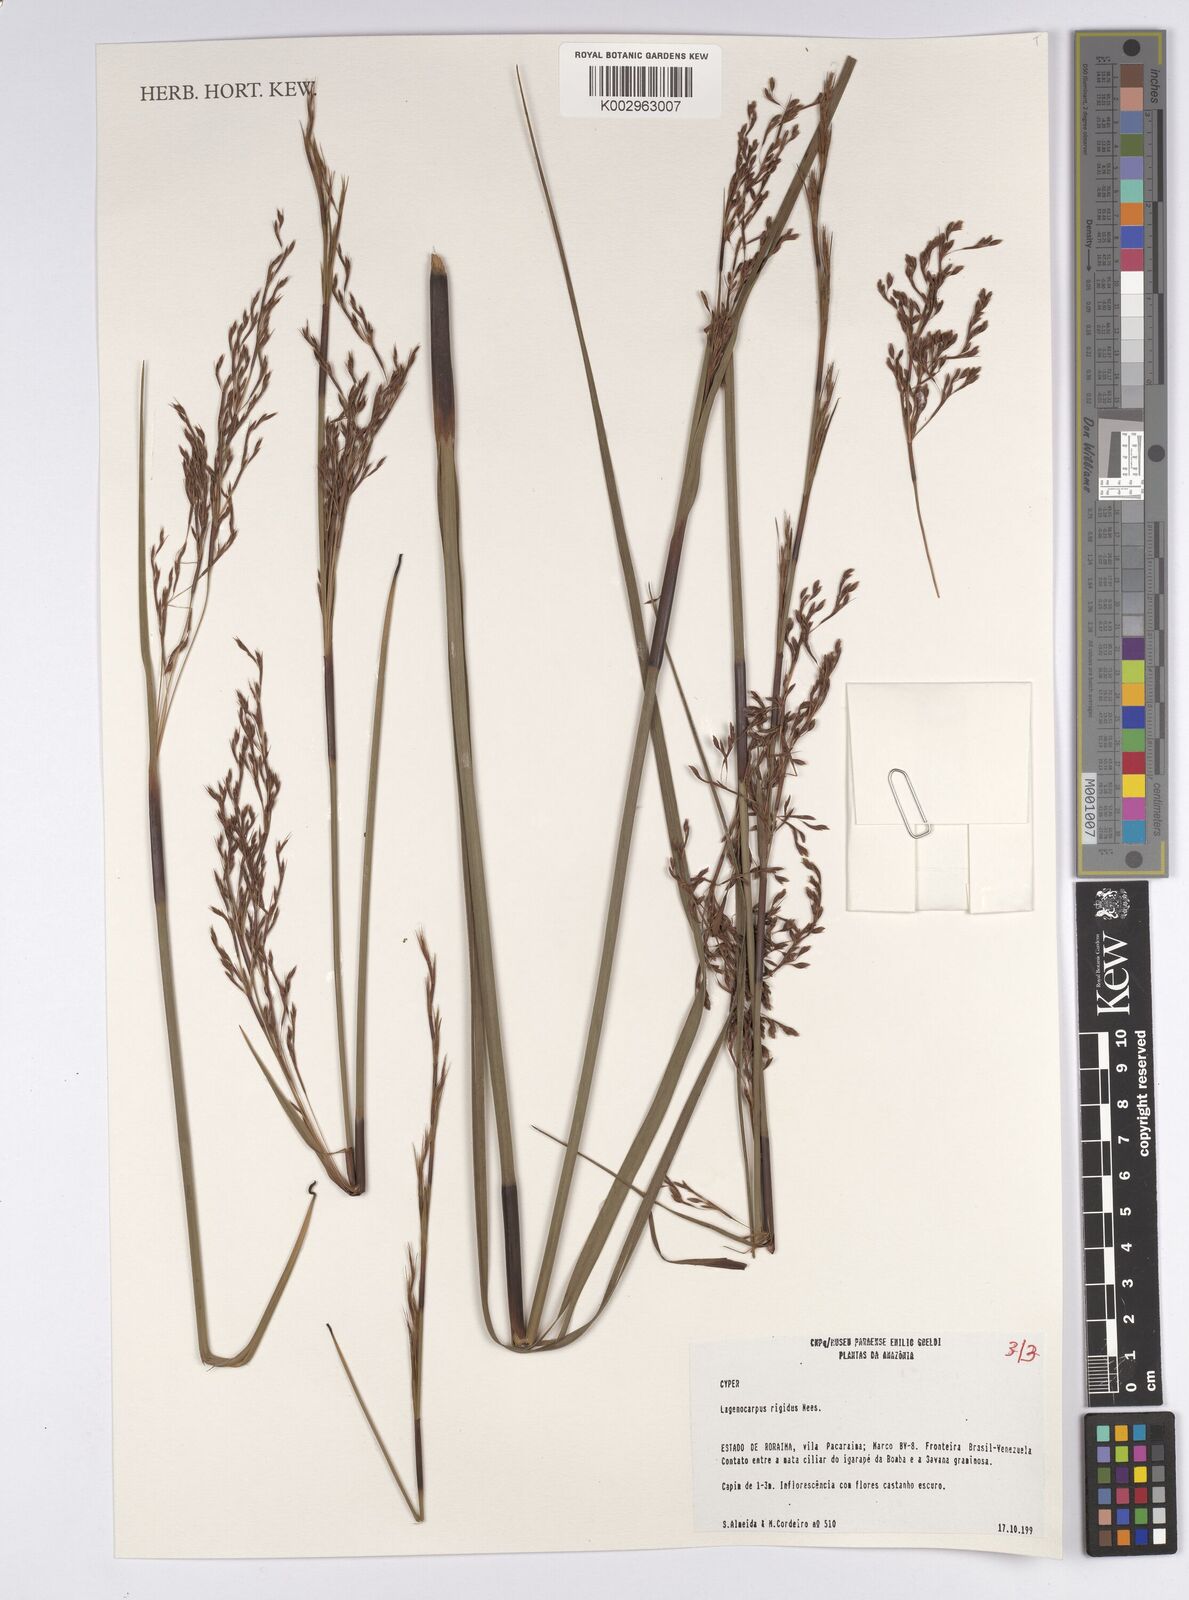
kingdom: Plantae
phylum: Tracheophyta
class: Liliopsida
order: Poales
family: Cyperaceae
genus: Lagenocarpus
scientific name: Lagenocarpus rigidus
